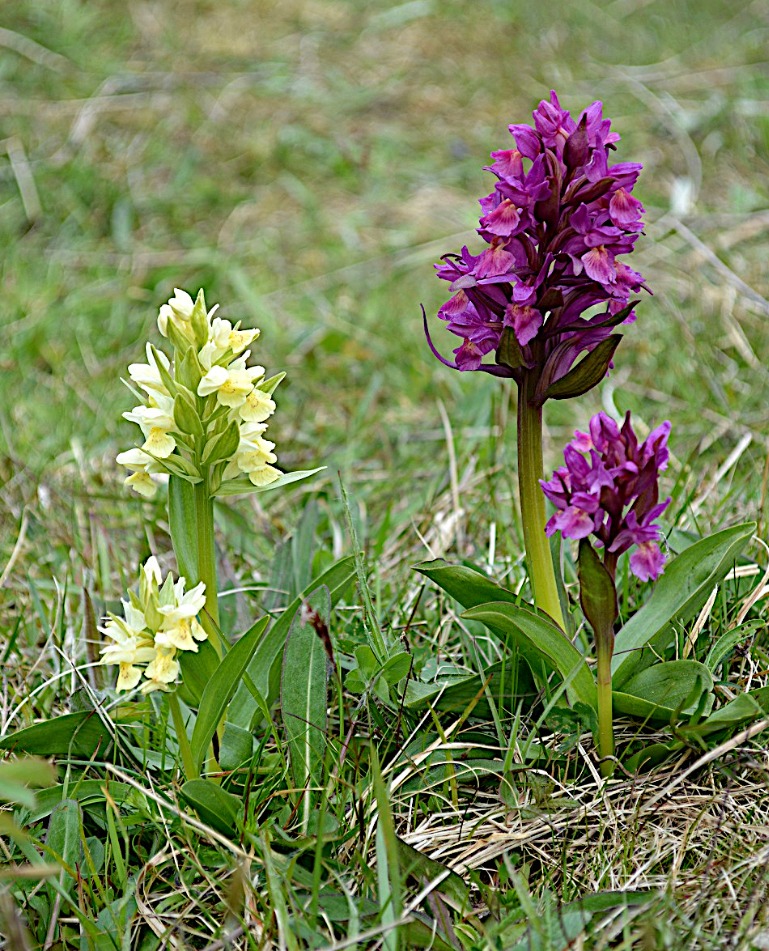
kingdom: Plantae
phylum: Tracheophyta
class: Liliopsida
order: Asparagales
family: Orchidaceae
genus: Dactylorhiza
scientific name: Dactylorhiza sambucina
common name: Hylde-gøgeurt
